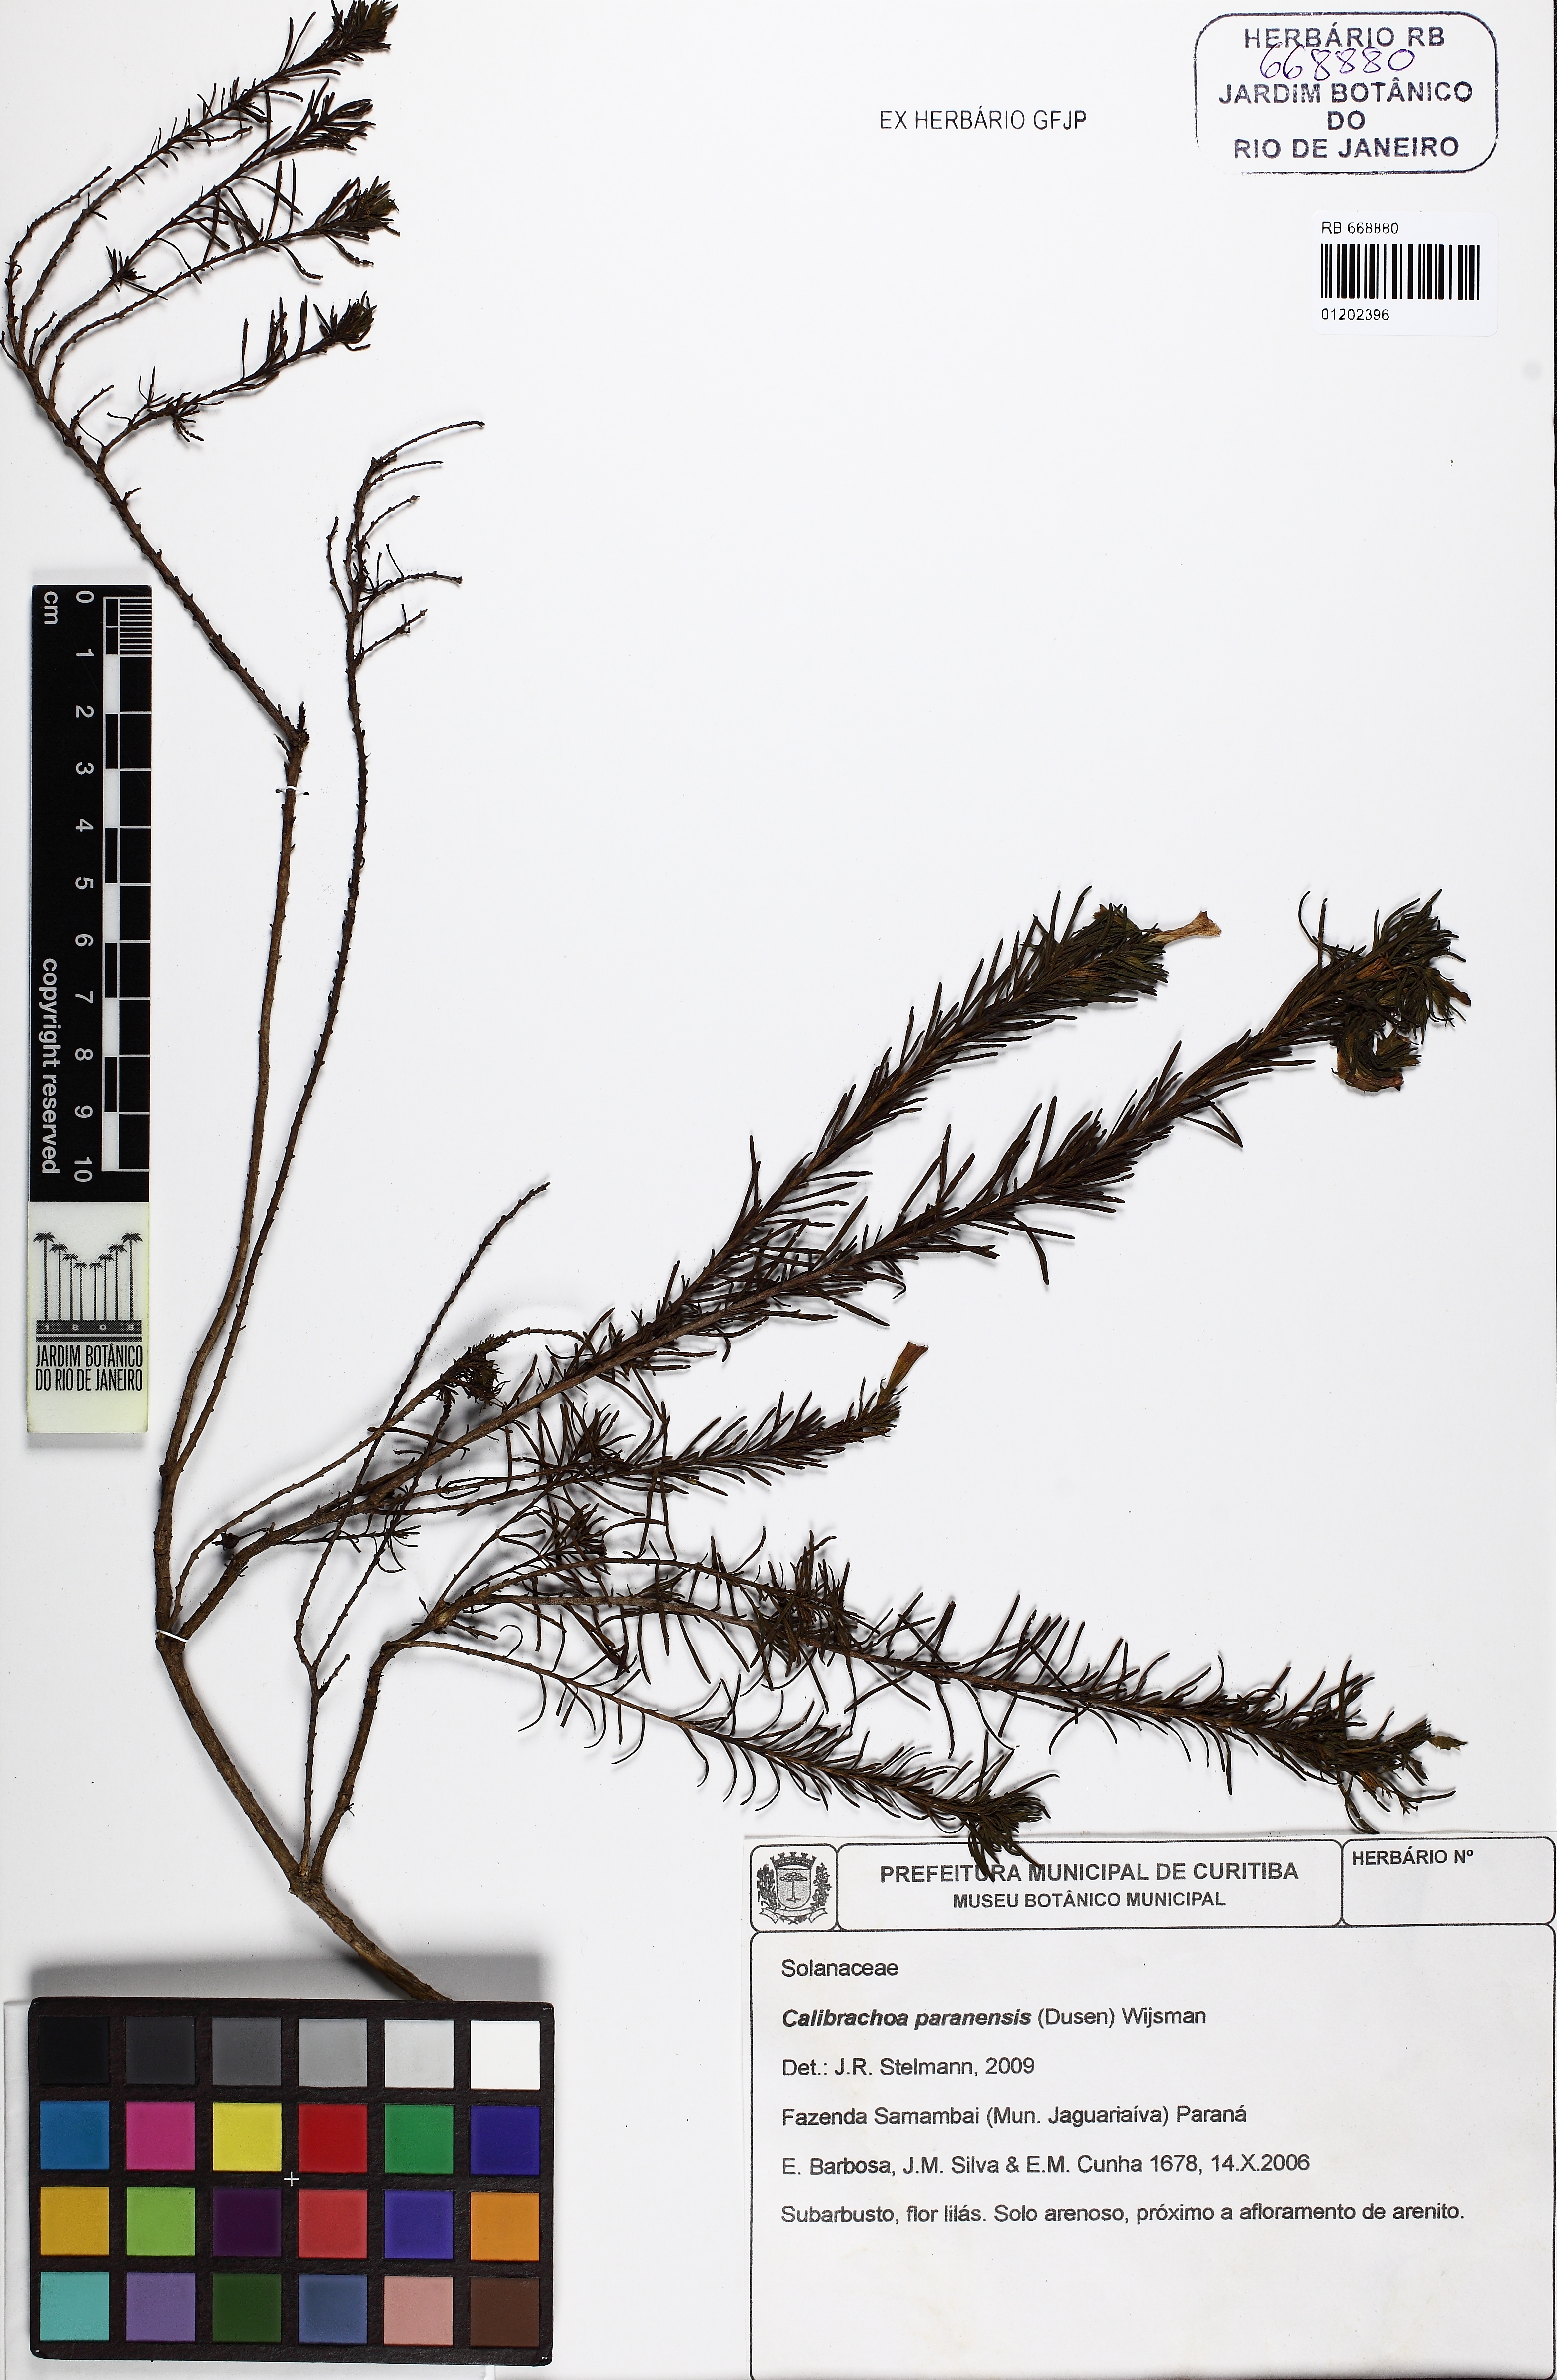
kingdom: Plantae
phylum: Tracheophyta
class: Magnoliopsida
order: Solanales
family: Solanaceae
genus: Calibrachoa
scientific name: Calibrachoa paranensis
